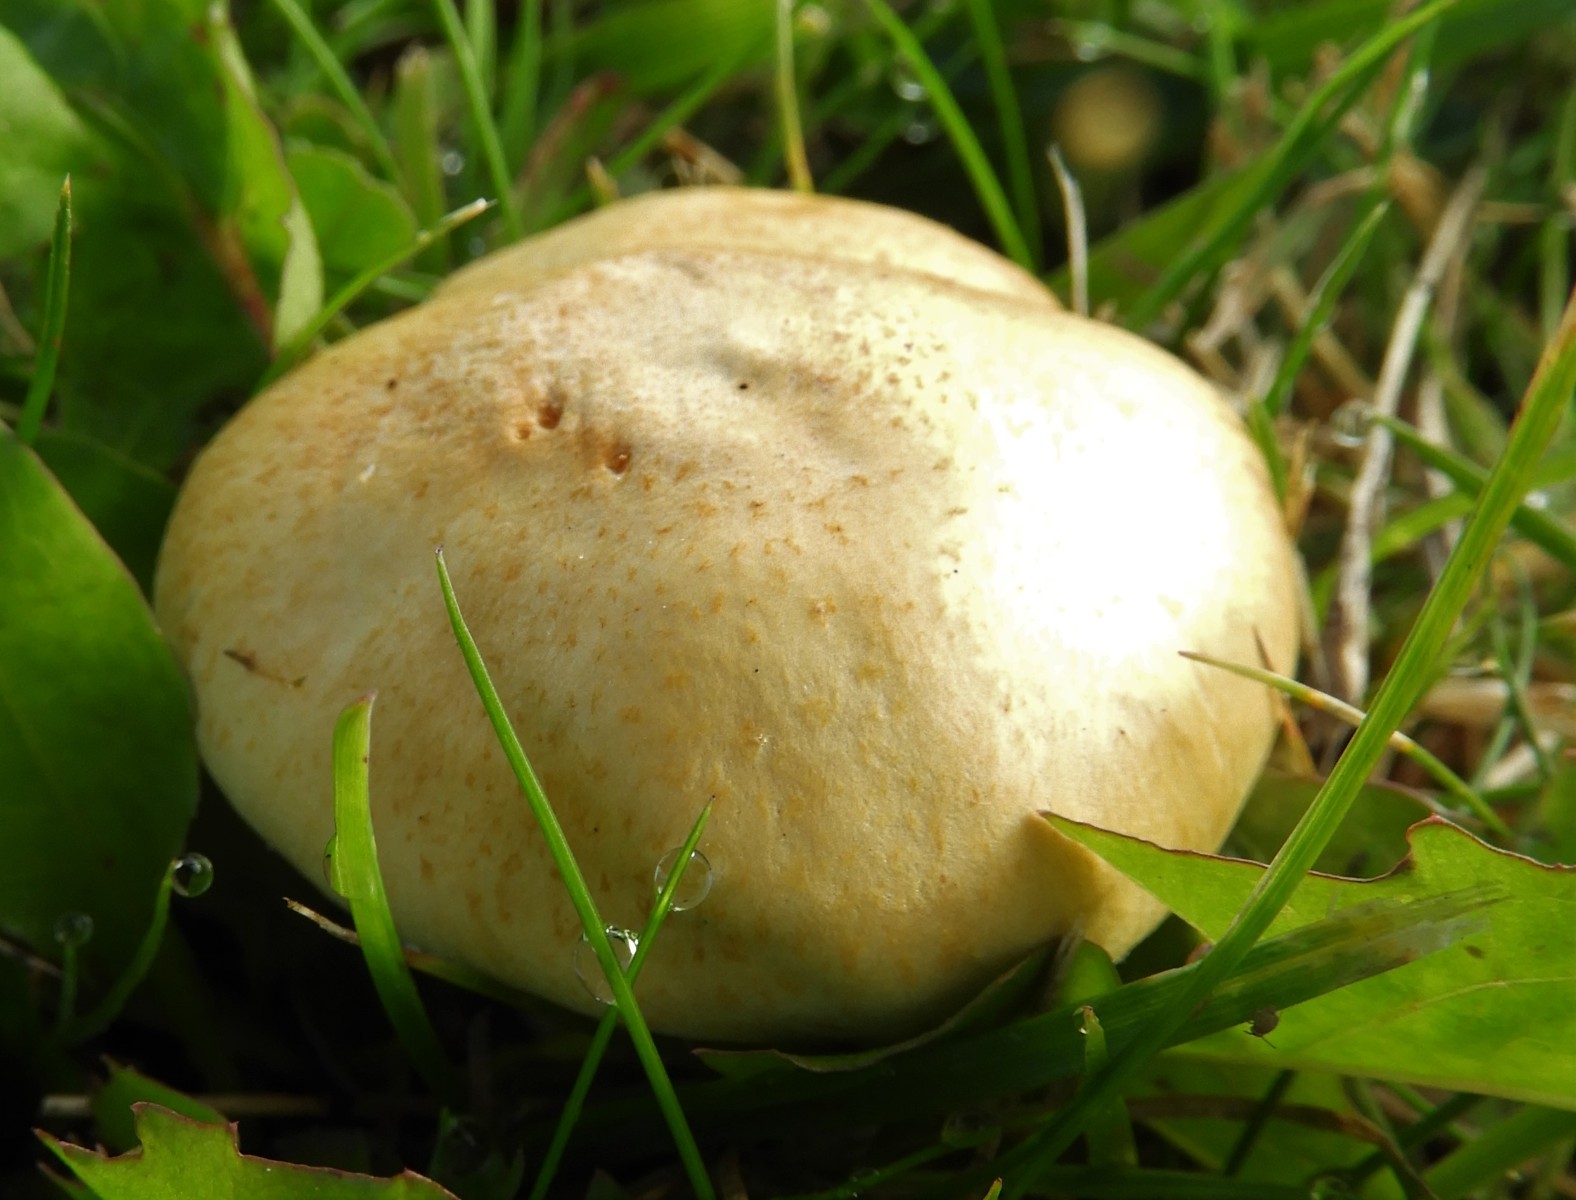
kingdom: Fungi
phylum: Basidiomycota
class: Agaricomycetes
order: Agaricales
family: Hymenogastraceae
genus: Psilocybe
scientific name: Psilocybe coronilla
